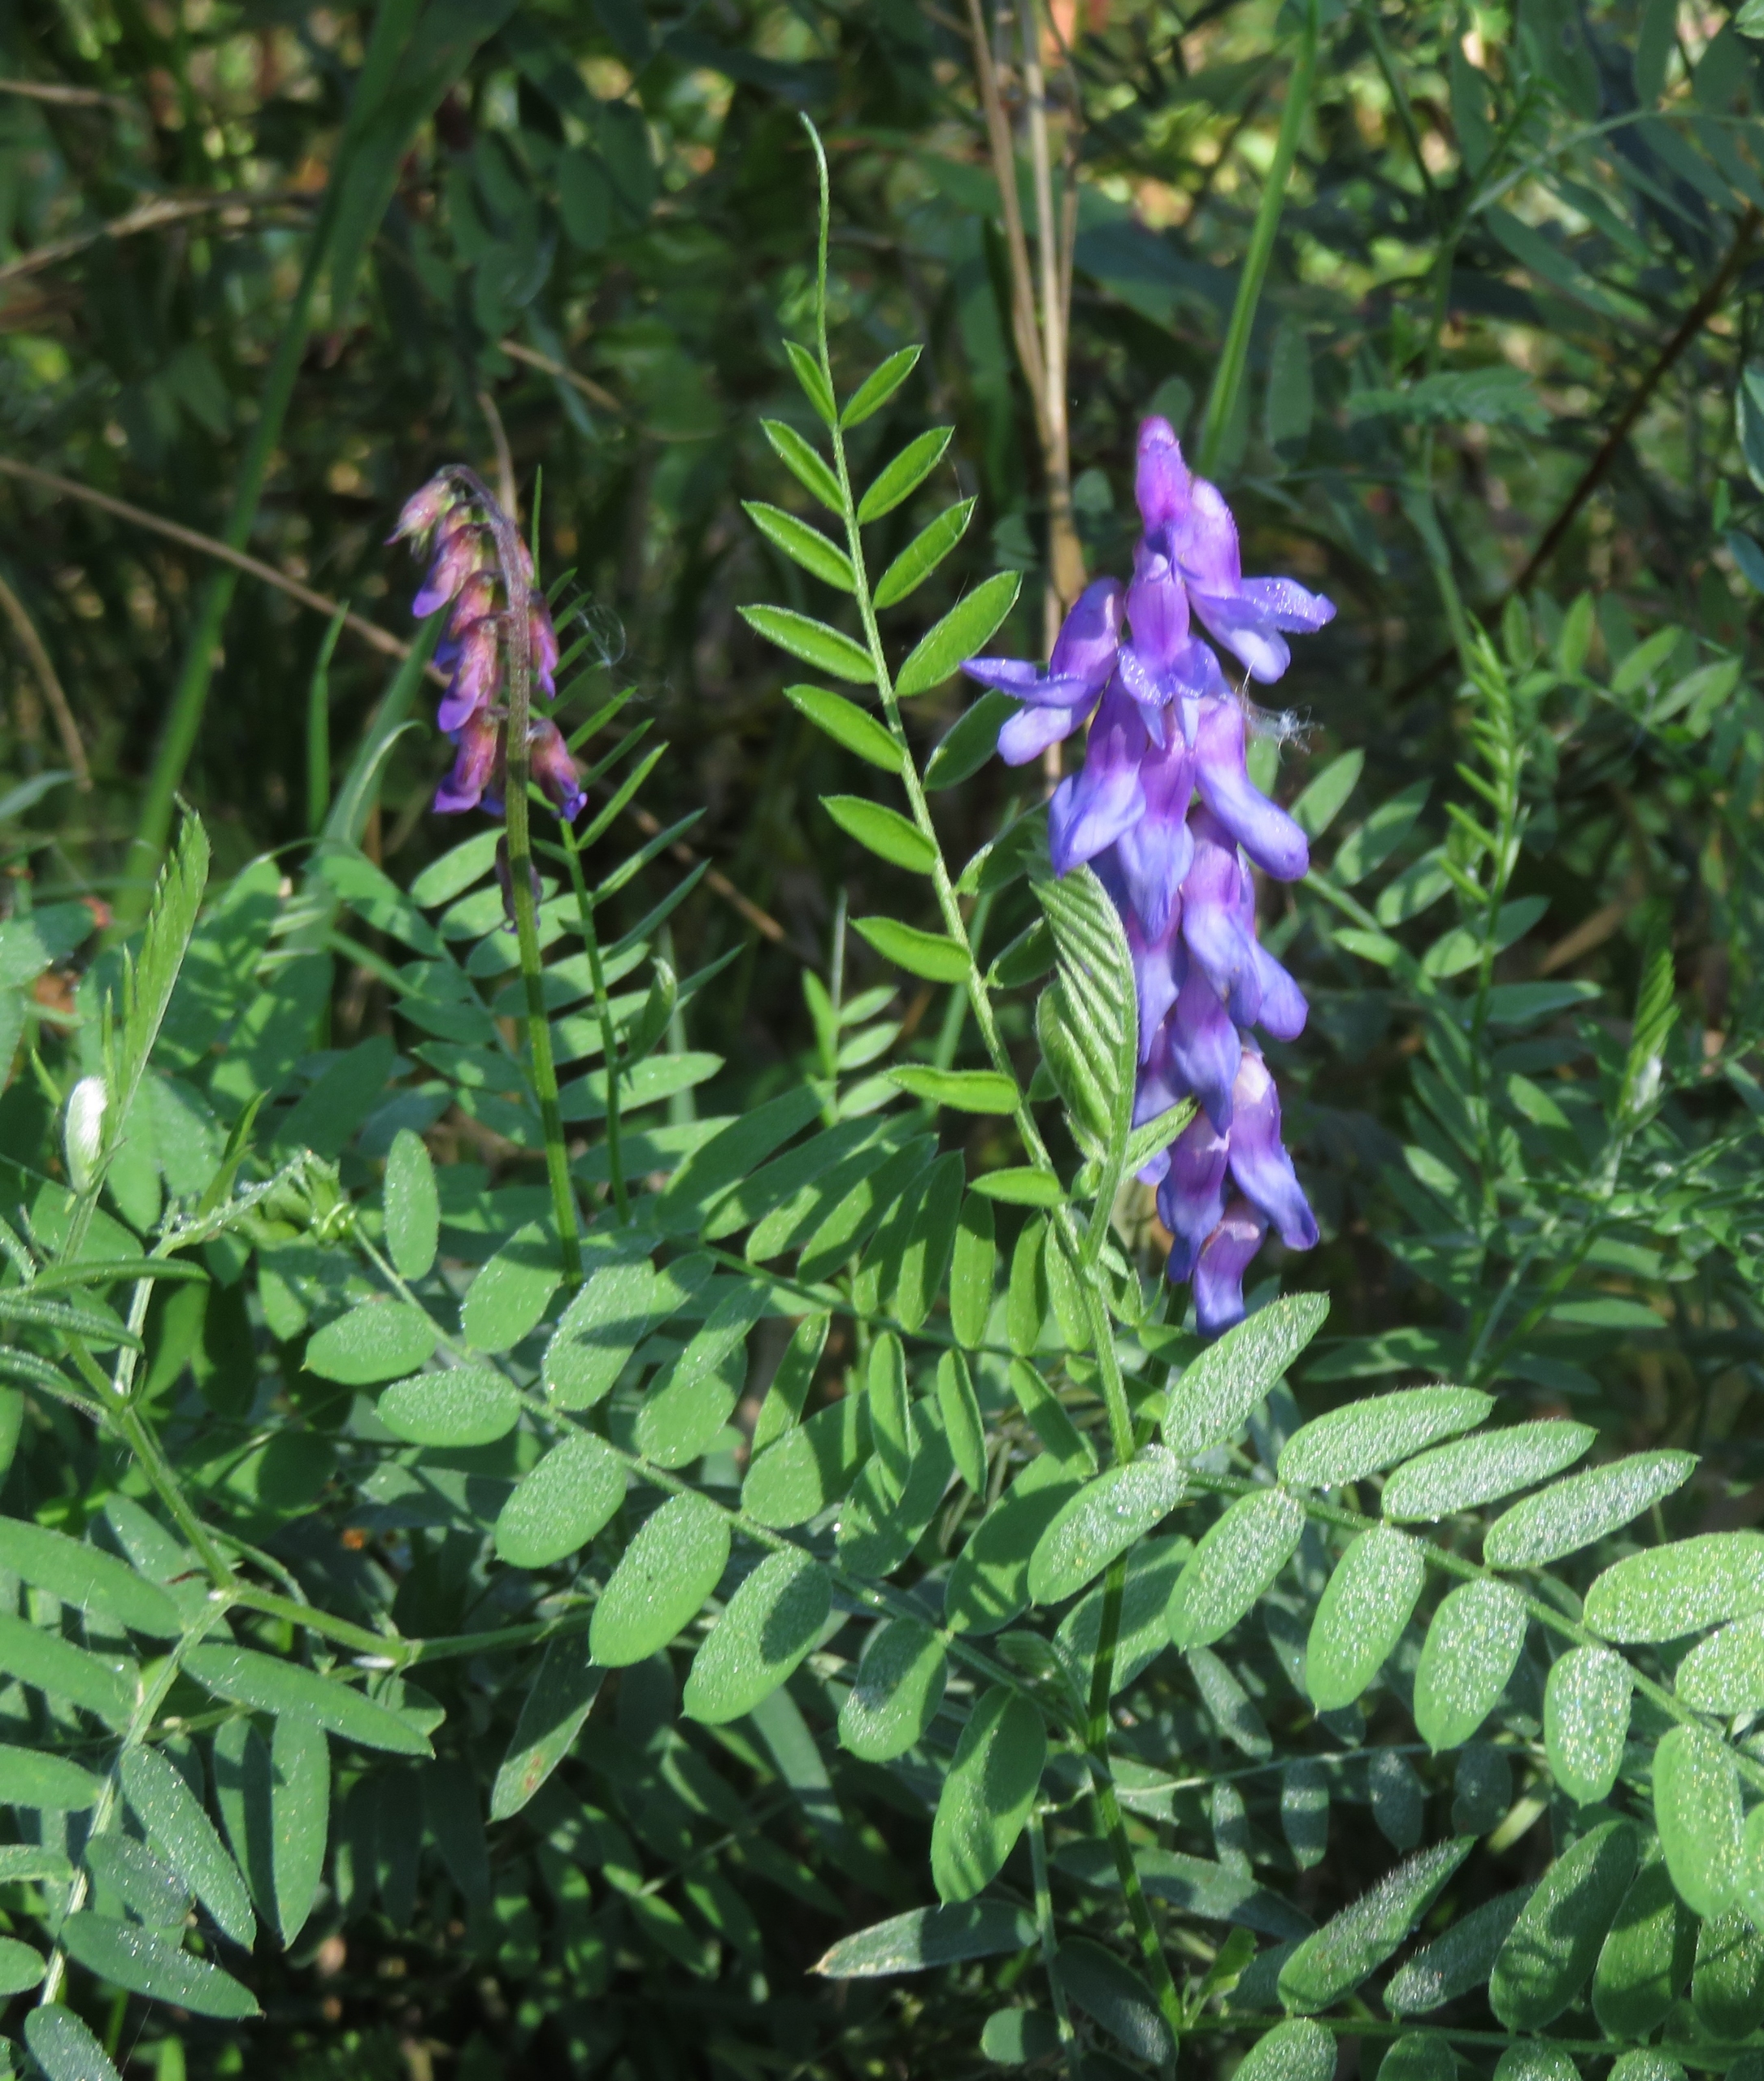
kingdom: Plantae
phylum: Tracheophyta
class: Magnoliopsida
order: Fabales
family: Fabaceae
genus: Vicia
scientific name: Vicia cracca
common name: Muse-vikke
